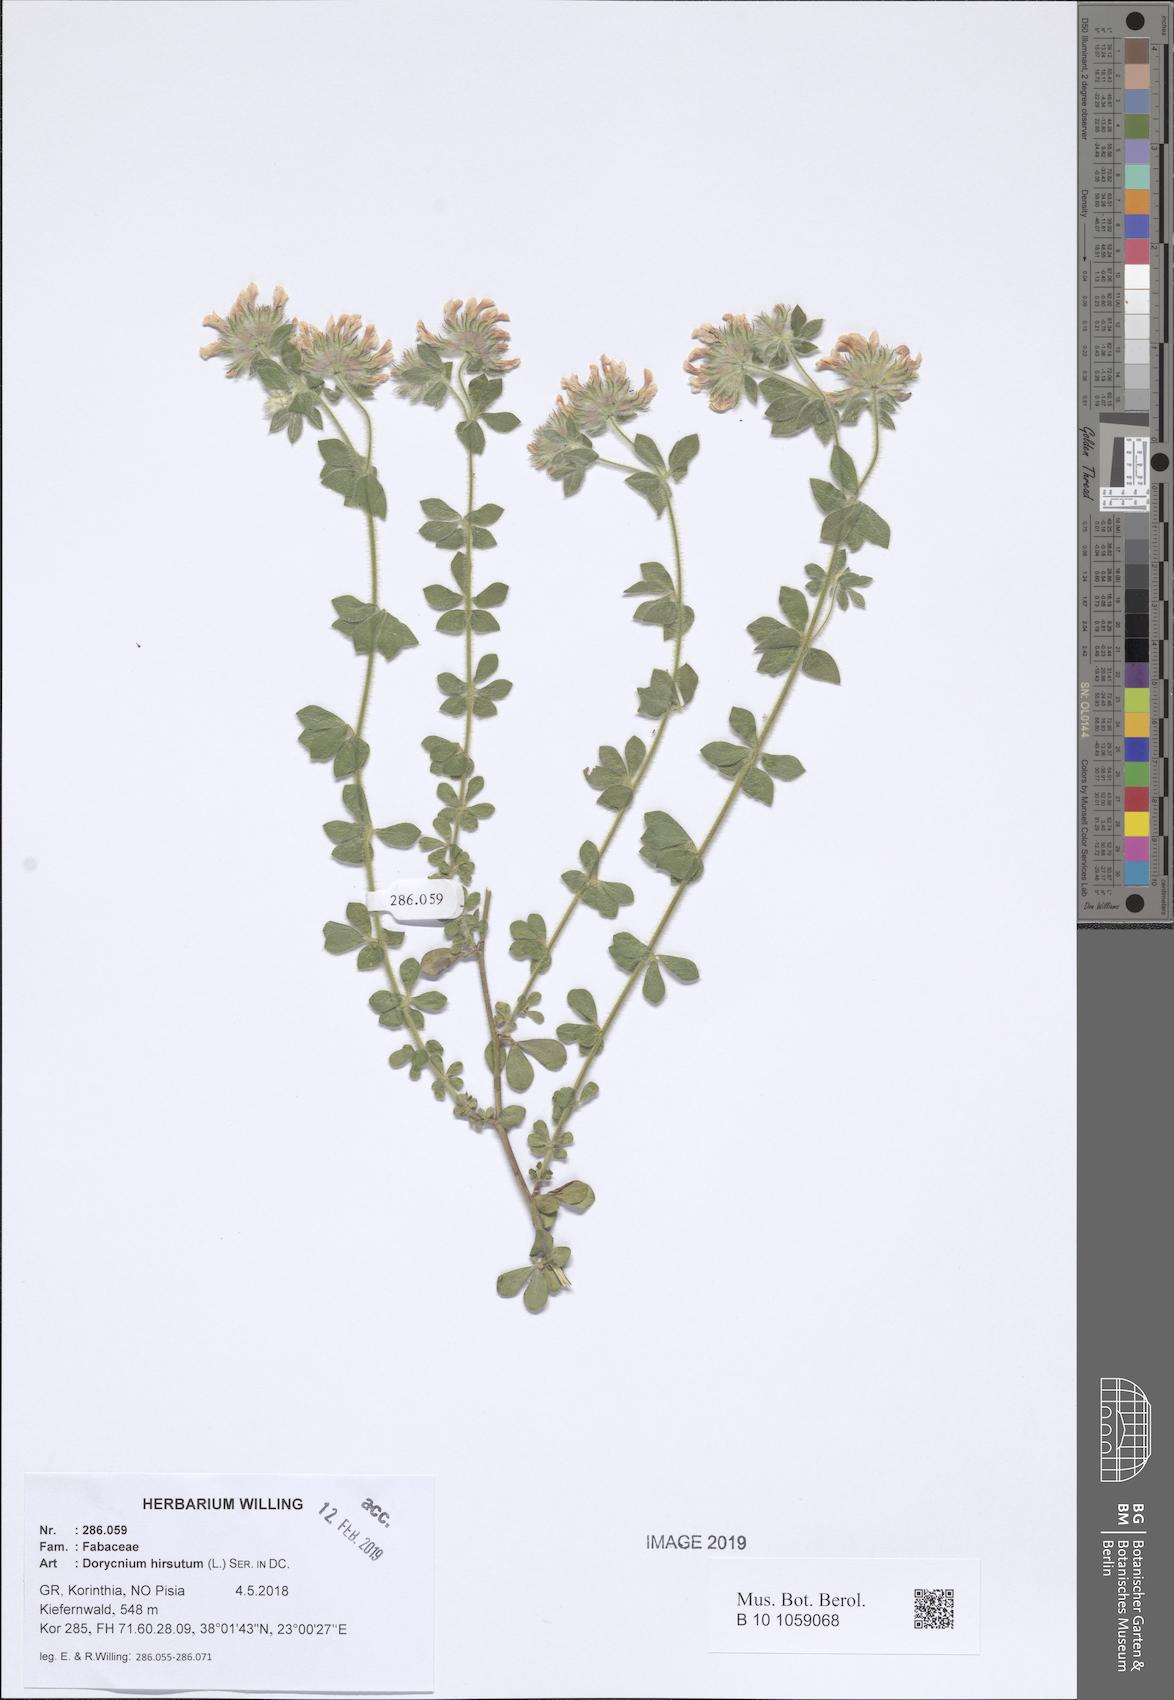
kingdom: Plantae
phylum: Tracheophyta
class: Magnoliopsida
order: Fabales
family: Fabaceae
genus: Lotus
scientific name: Lotus hirsutus
